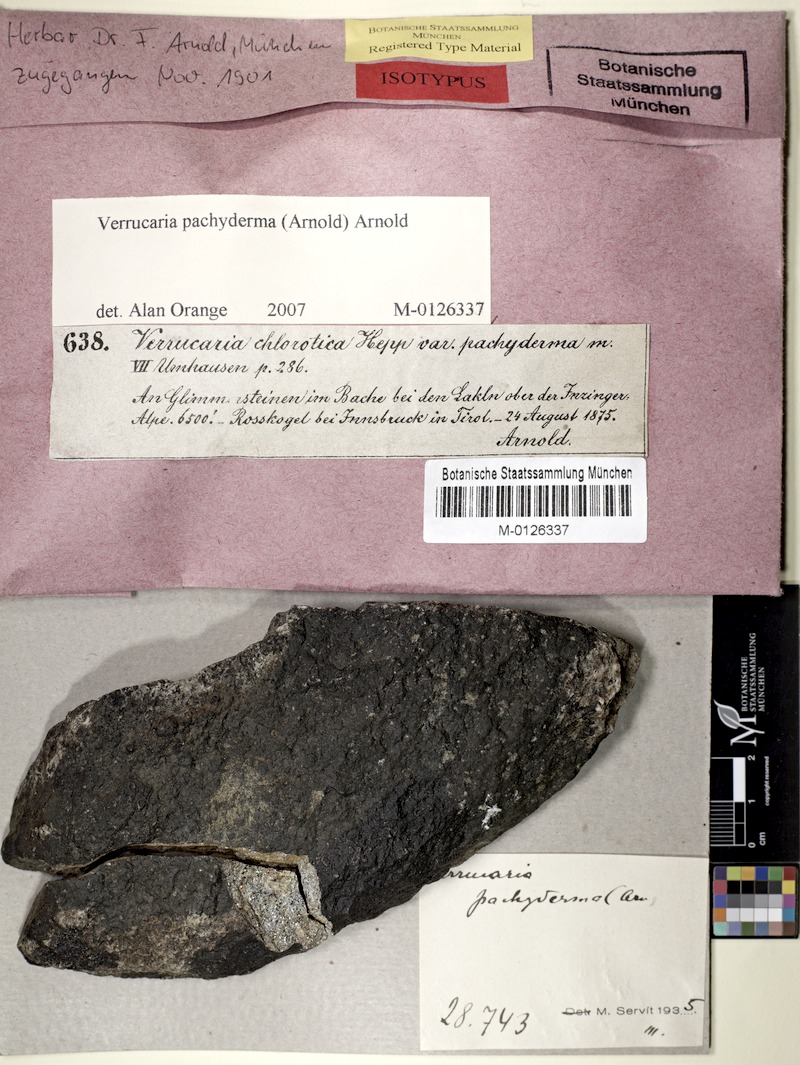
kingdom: Fungi
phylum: Ascomycota
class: Eurotiomycetes
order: Verrucariales
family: Verrucariaceae
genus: Verrucaria
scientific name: Verrucaria pachyderma
